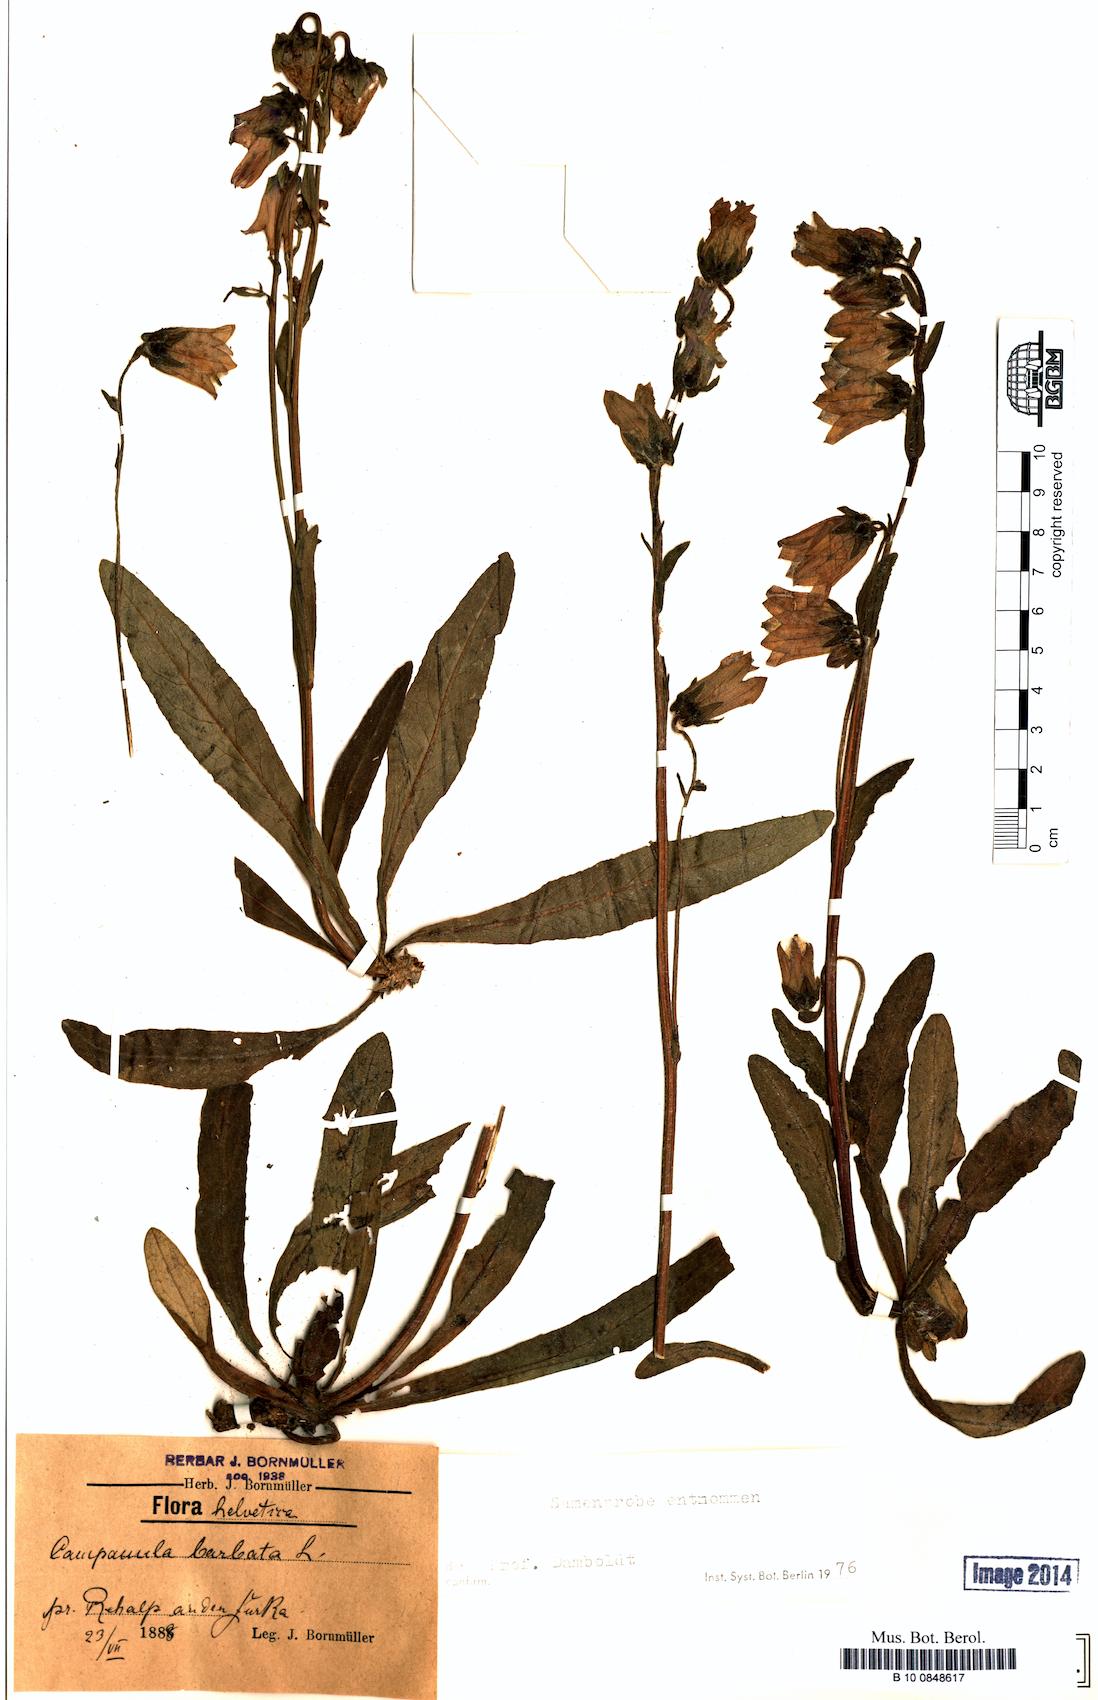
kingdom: Plantae
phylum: Tracheophyta
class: Magnoliopsida
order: Asterales
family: Campanulaceae
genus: Campanula
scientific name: Campanula barbata
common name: Bearded bellflower
